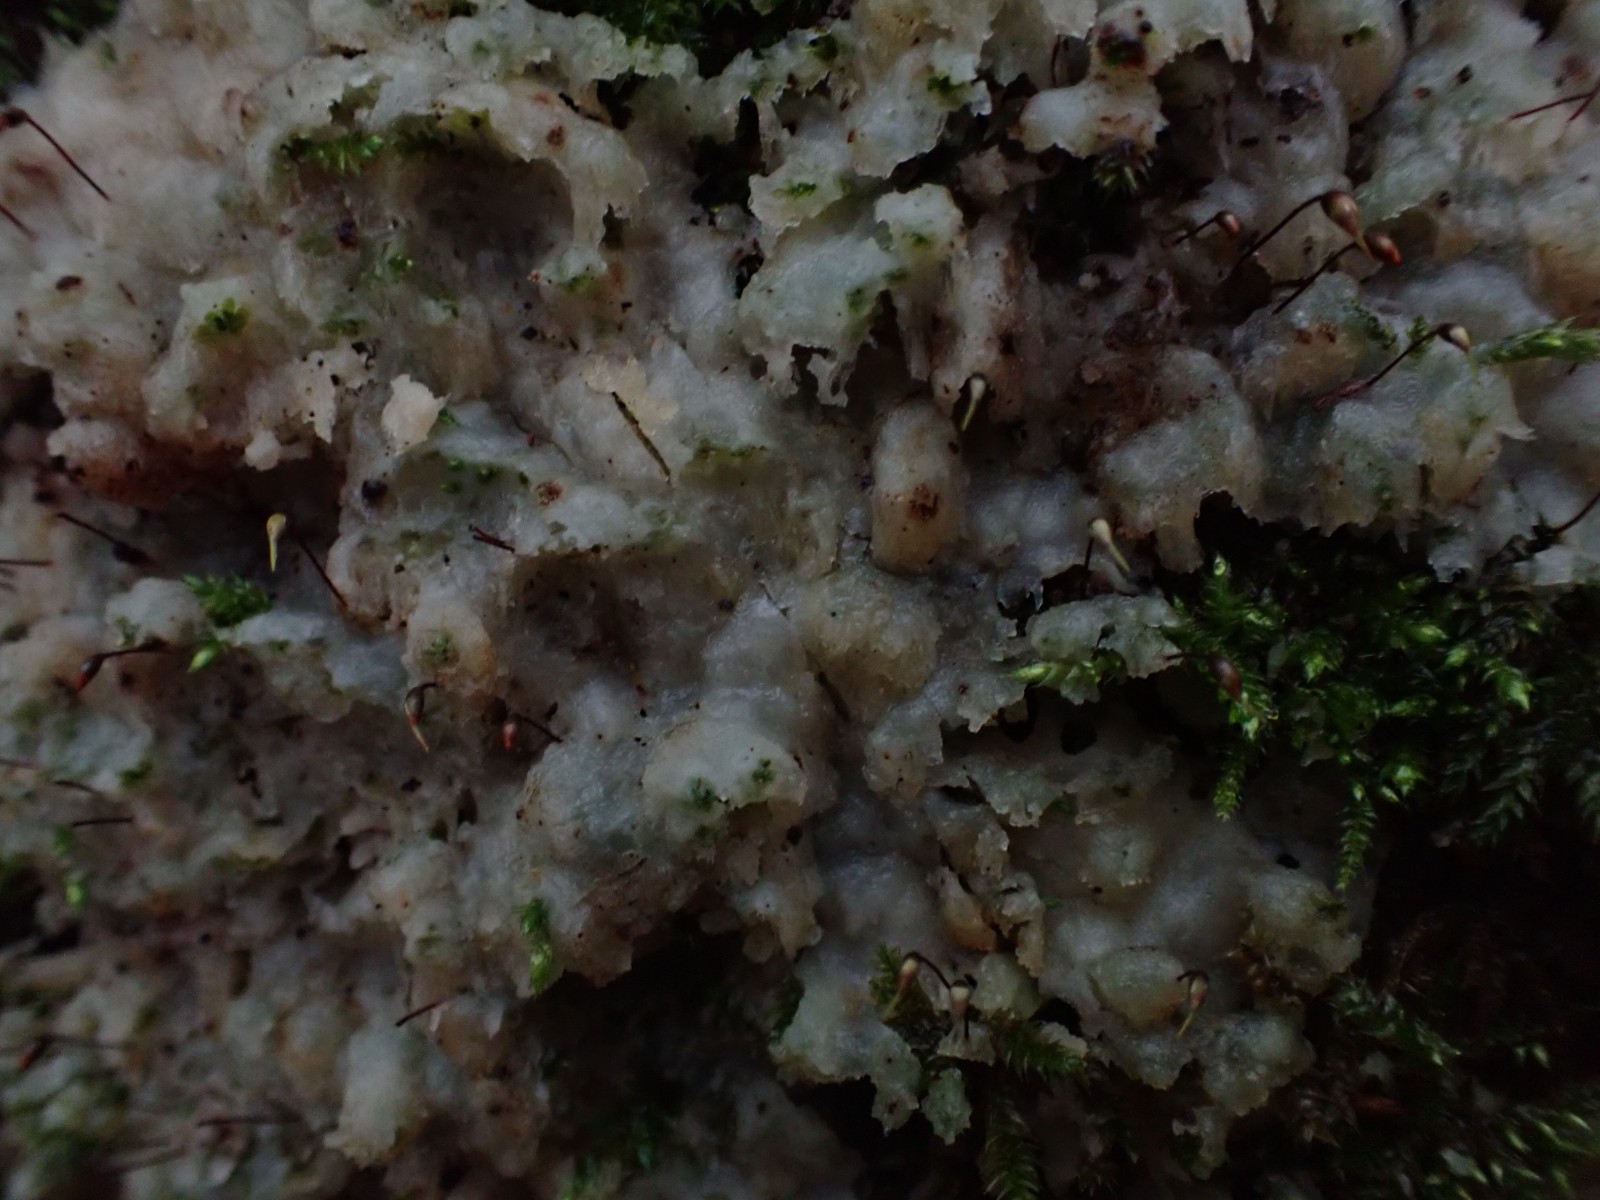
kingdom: Fungi
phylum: Basidiomycota
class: Agaricomycetes
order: Polyporales
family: Meruliaceae
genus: Physisporinus
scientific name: Physisporinus vitreus
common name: mastesvamp
